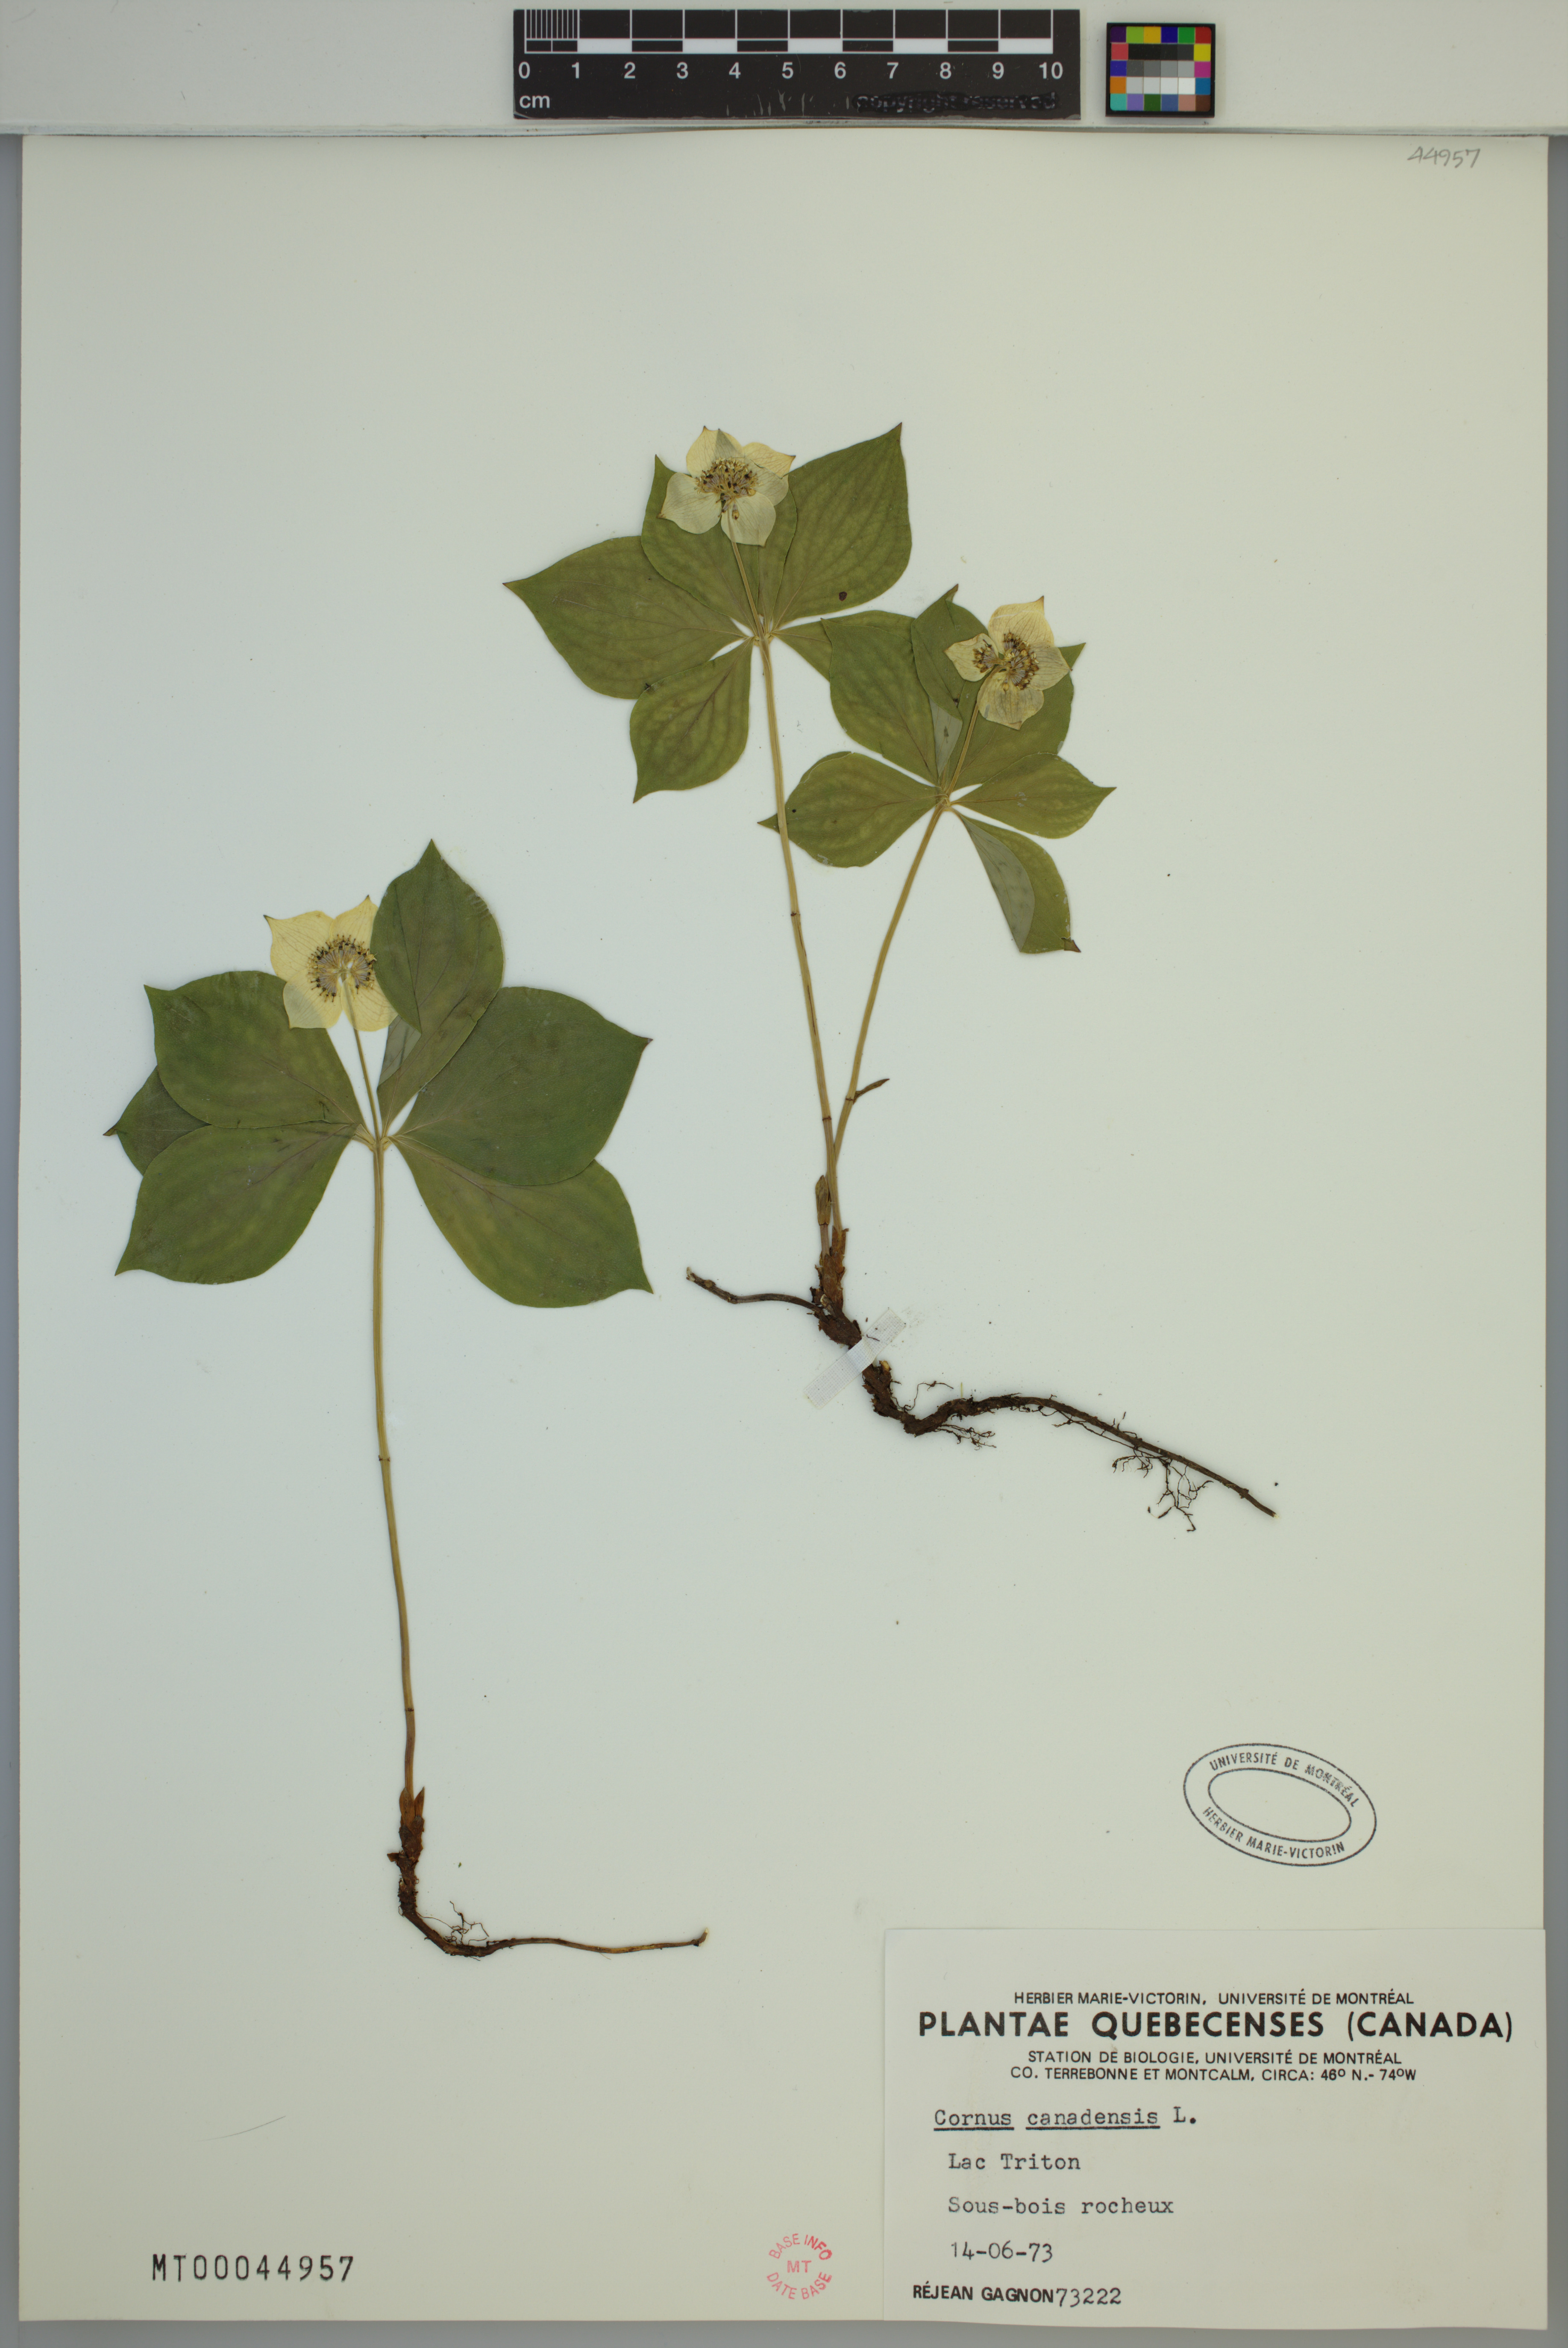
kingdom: Plantae
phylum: Tracheophyta
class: Magnoliopsida
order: Cornales
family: Cornaceae
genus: Cornus
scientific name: Cornus canadensis
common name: Creeping dogwood
